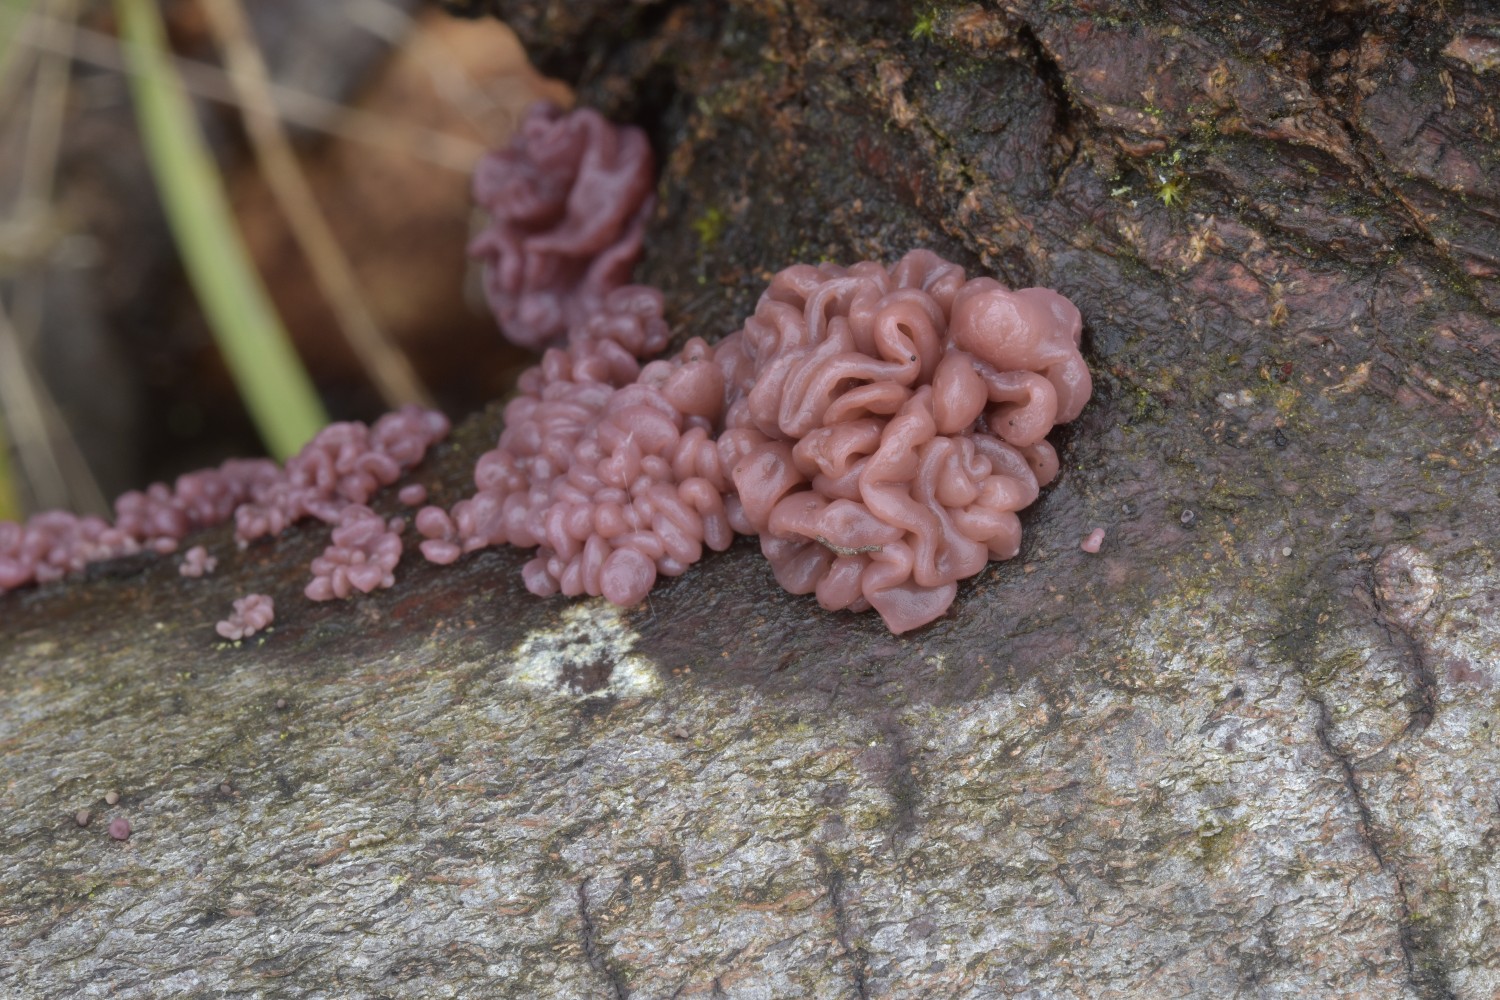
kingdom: Fungi
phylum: Ascomycota
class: Leotiomycetes
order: Helotiales
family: Gelatinodiscaceae
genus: Ascocoryne
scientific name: Ascocoryne sarcoides
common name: rødlilla sejskive
